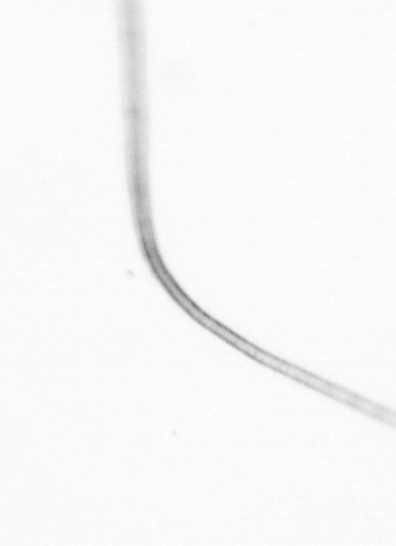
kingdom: Chromista
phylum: Ochrophyta
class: Bacillariophyceae
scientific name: Bacillariophyceae
